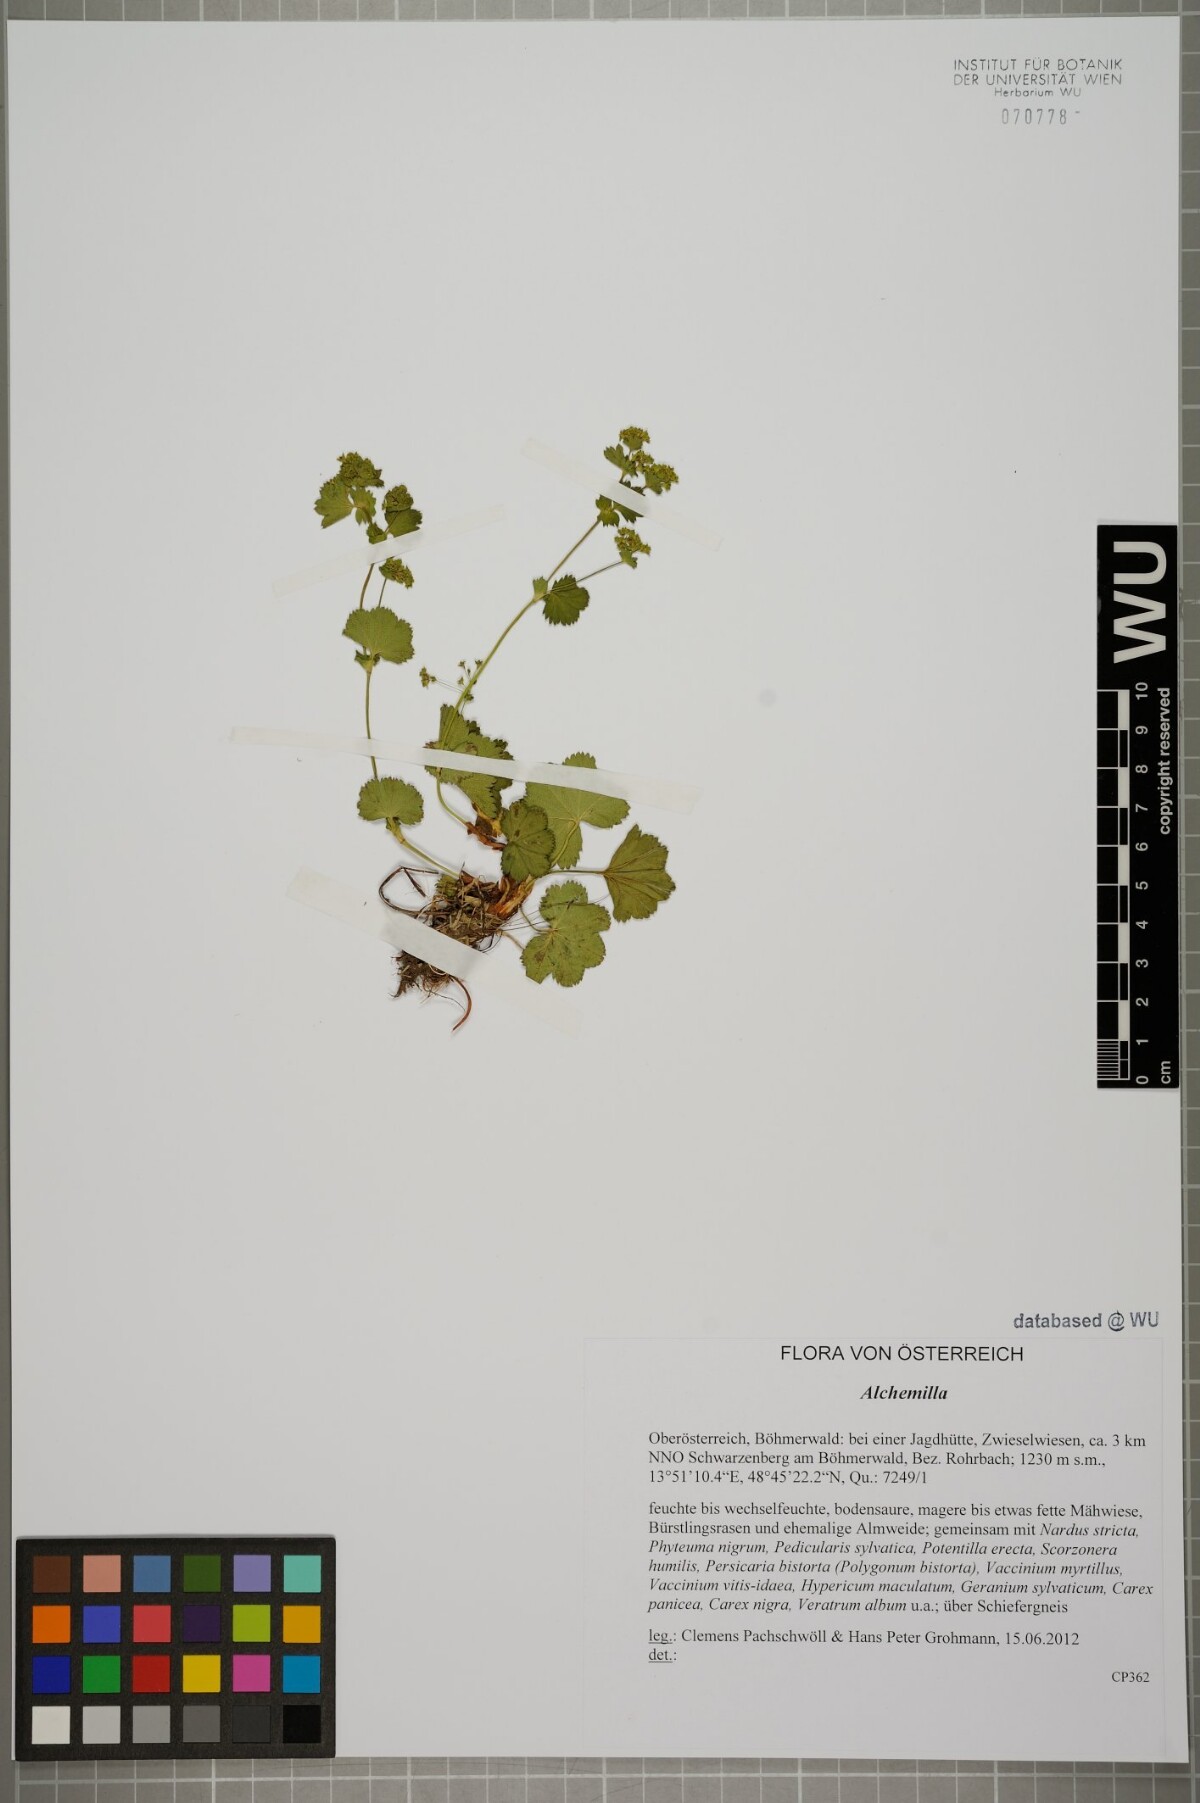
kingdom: Plantae
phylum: Tracheophyta
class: Magnoliopsida
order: Rosales
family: Rosaceae
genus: Alchemilla
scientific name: Alchemilla
